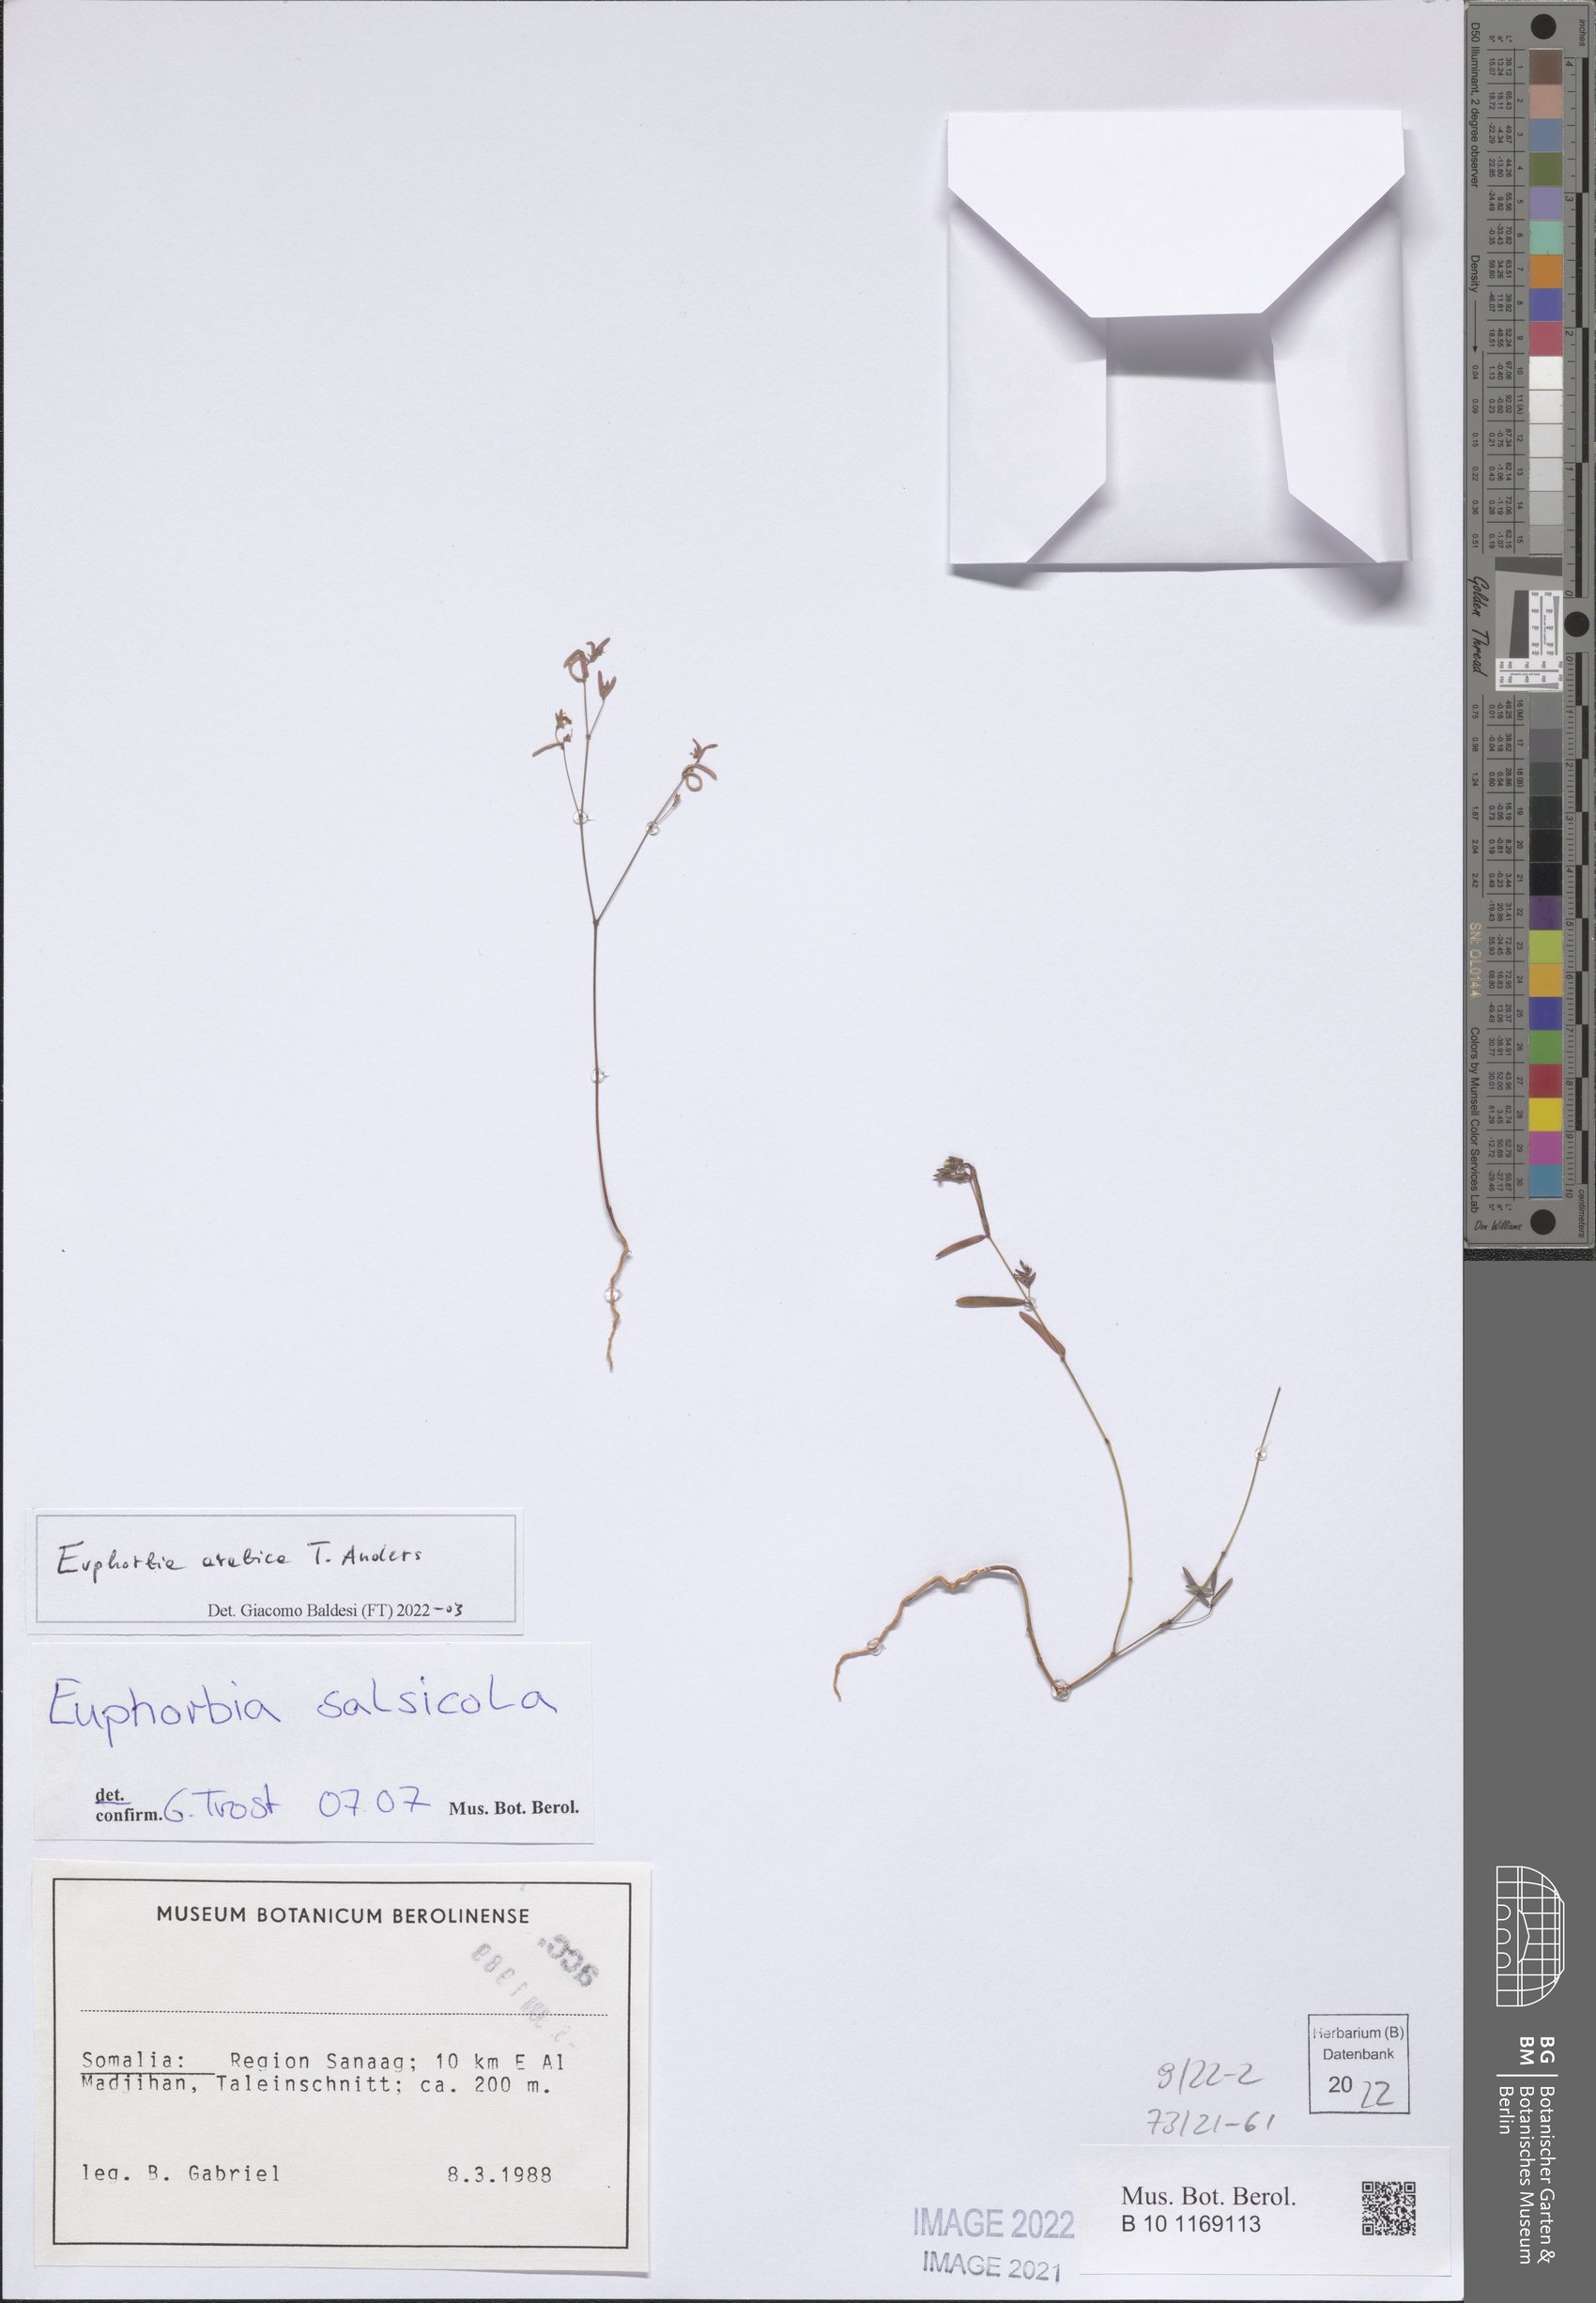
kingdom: Plantae
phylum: Tracheophyta
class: Magnoliopsida
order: Malpighiales
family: Euphorbiaceae
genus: Euphorbia
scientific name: Euphorbia arabica
